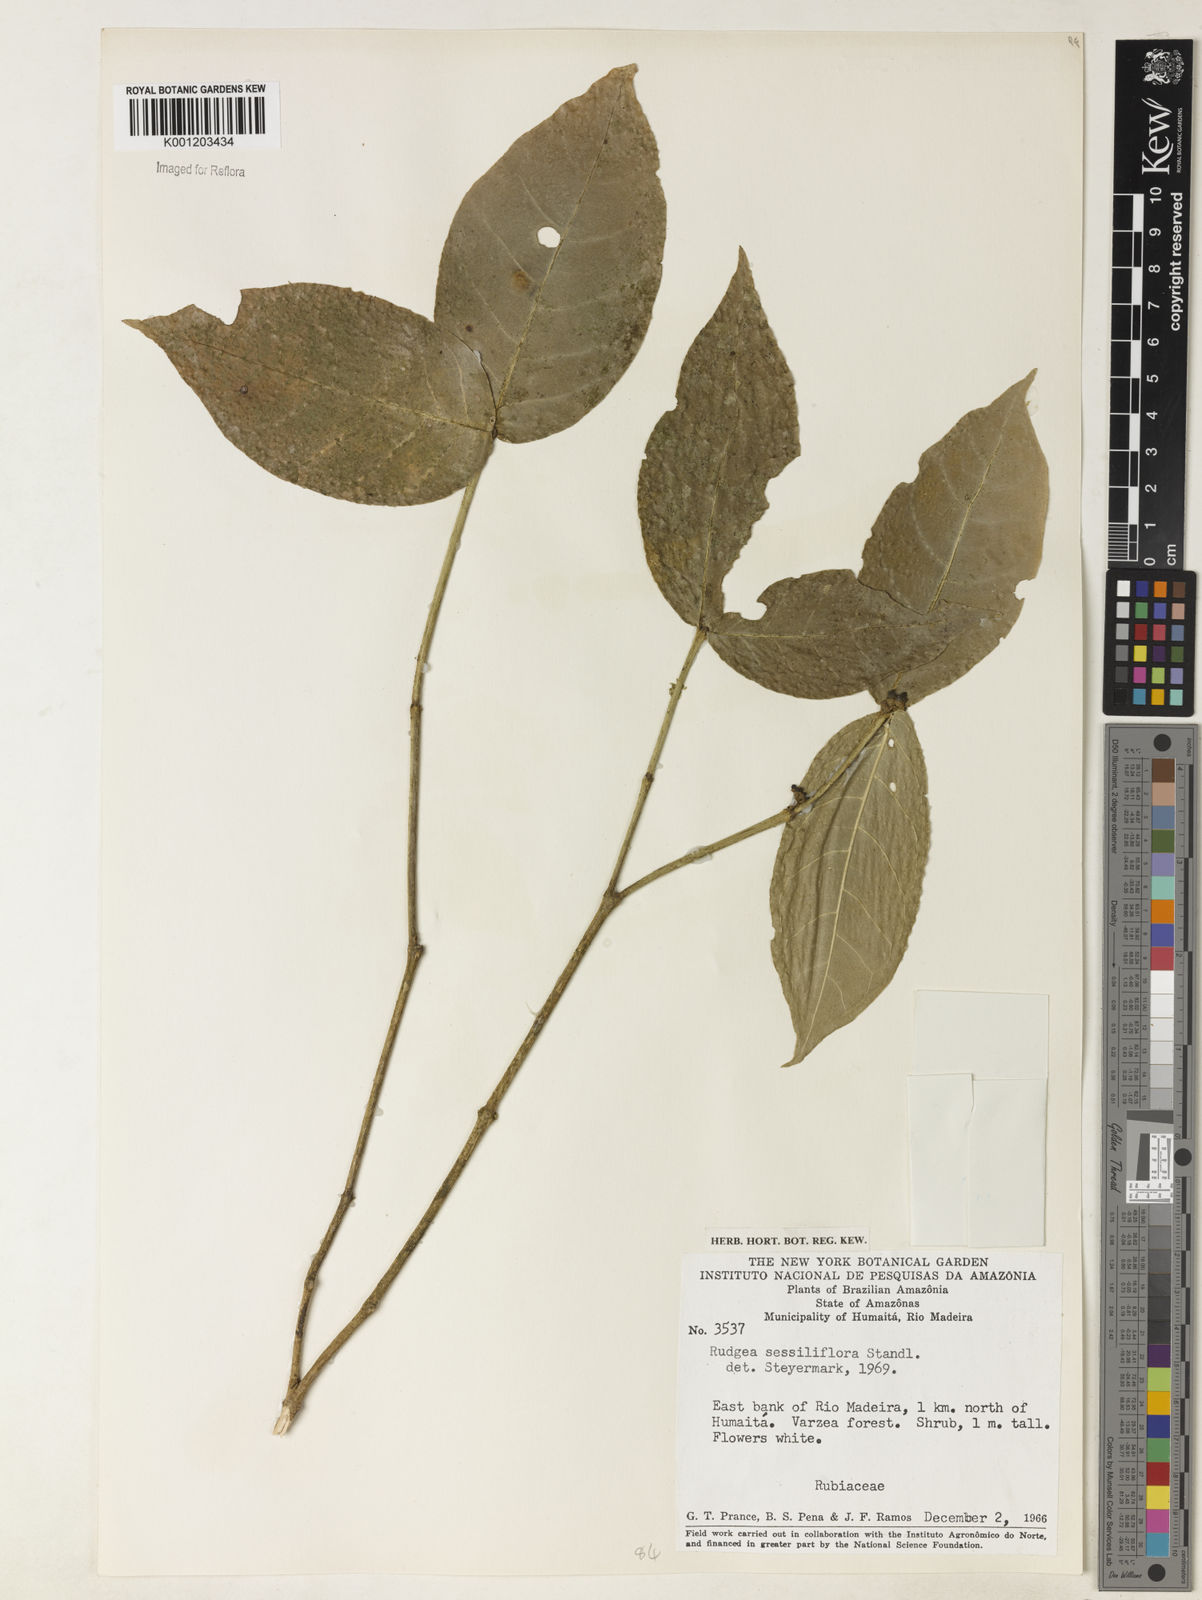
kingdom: Plantae
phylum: Tracheophyta
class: Magnoliopsida
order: Gentianales
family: Rubiaceae
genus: Rudgea
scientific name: Rudgea
